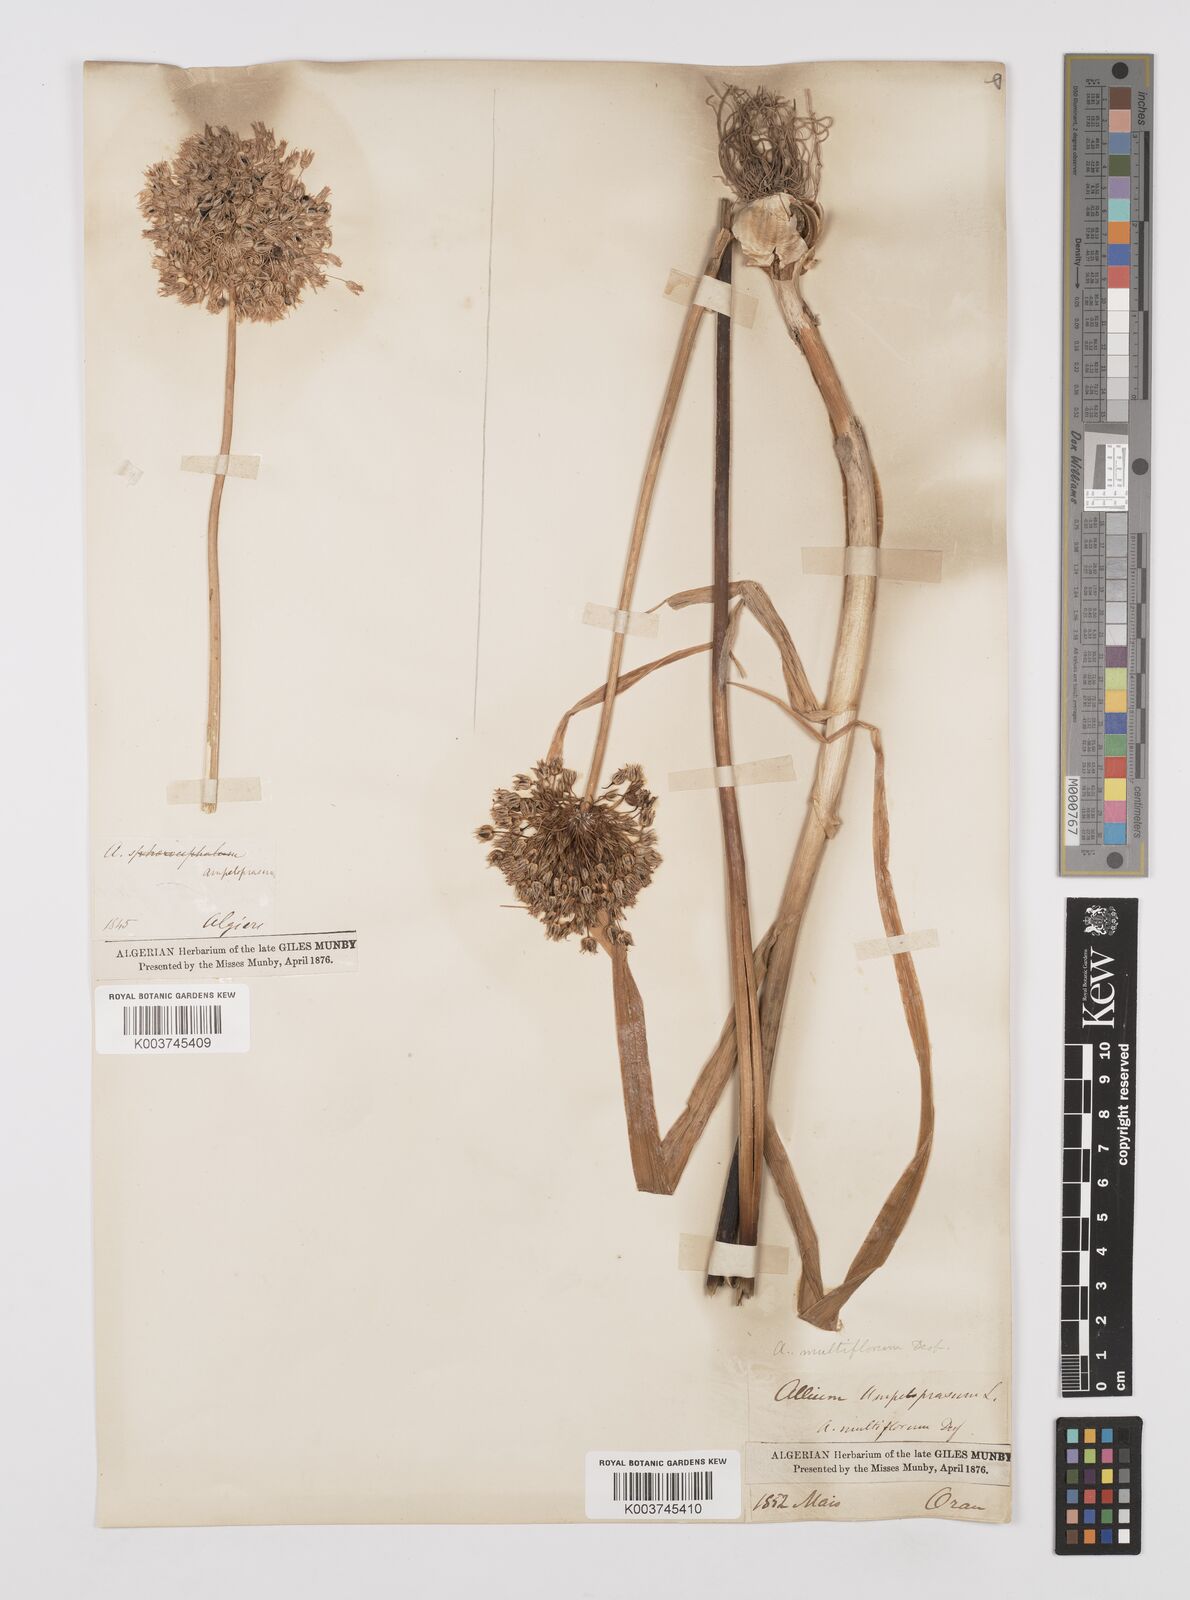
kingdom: Plantae
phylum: Tracheophyta
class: Liliopsida
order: Asparagales
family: Amaryllidaceae
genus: Allium
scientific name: Allium rotundum
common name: Sand leek
